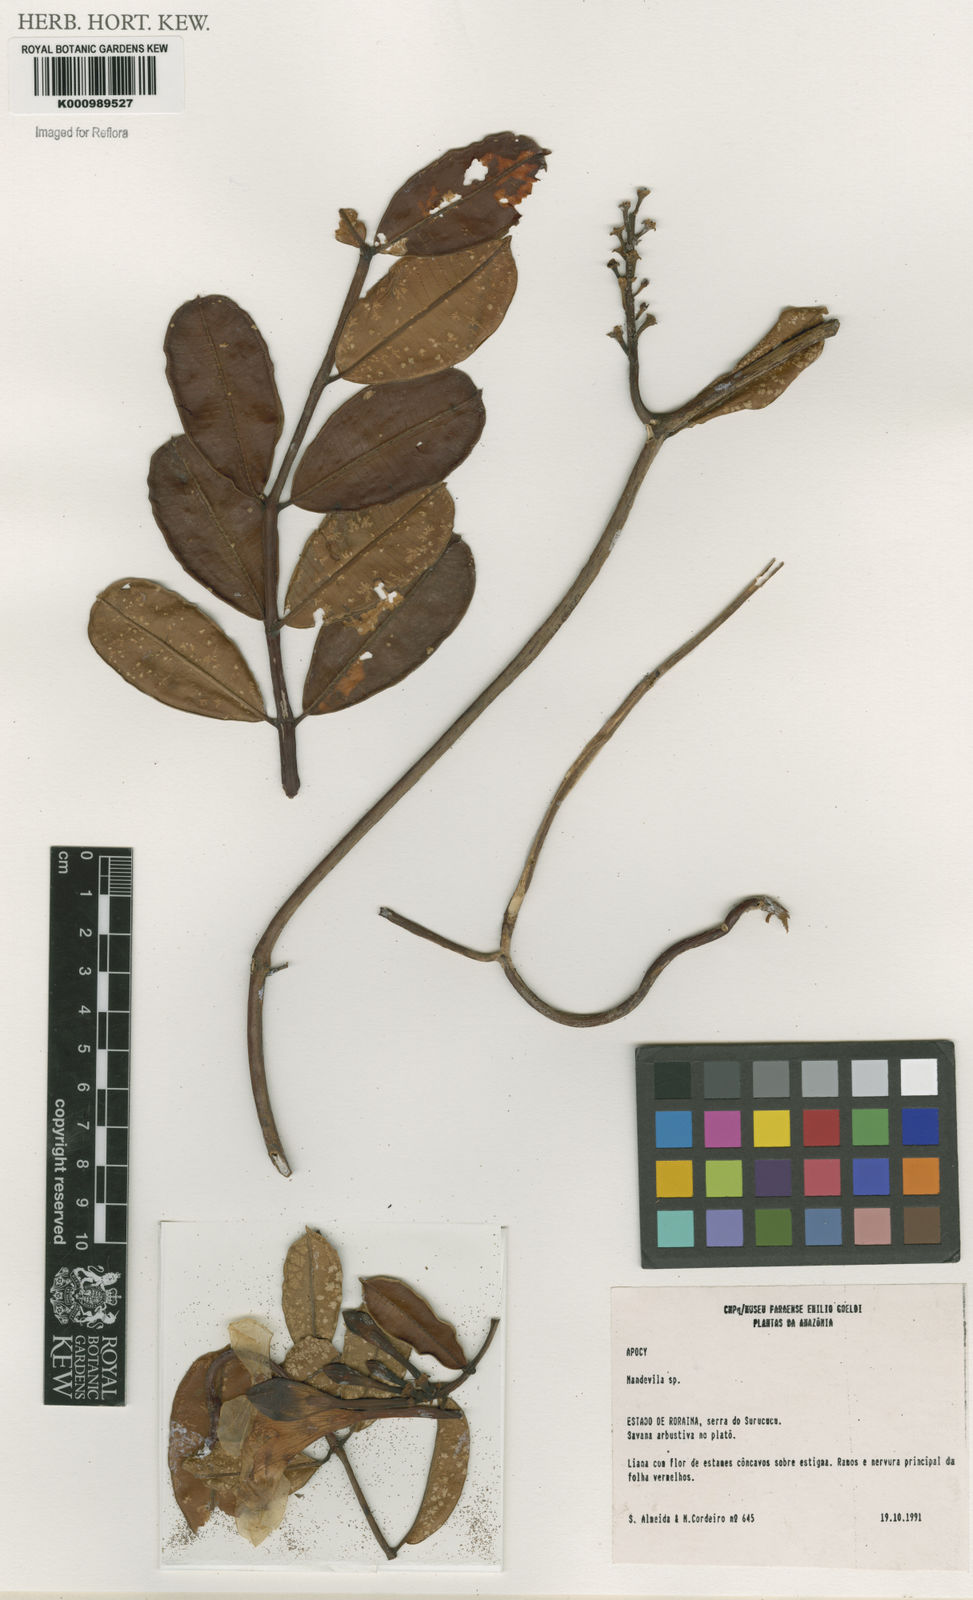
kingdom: Plantae
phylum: Tracheophyta
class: Magnoliopsida
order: Gentianales
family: Apocynaceae
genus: Mandevilla
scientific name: Mandevilla
